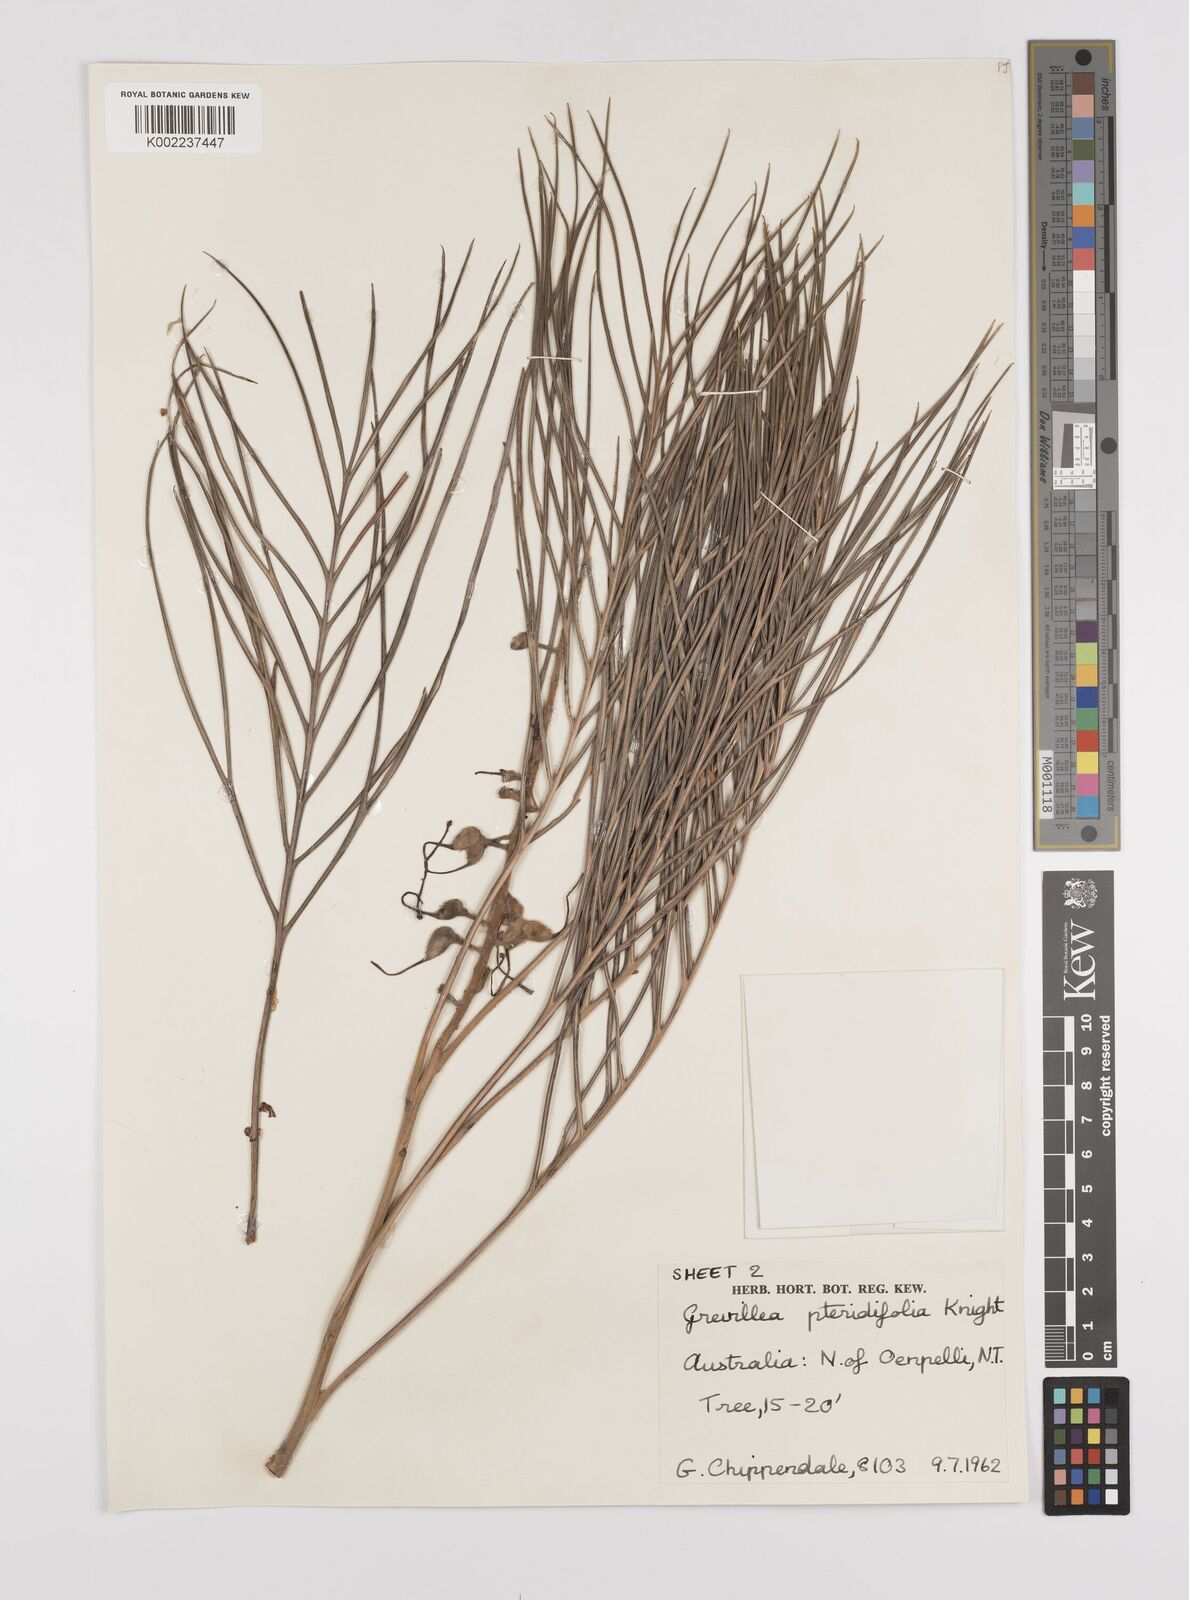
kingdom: Plantae
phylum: Tracheophyta
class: Magnoliopsida
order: Proteales
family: Proteaceae
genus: Grevillea
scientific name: Grevillea pteridifolia
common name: Golden grevillea
